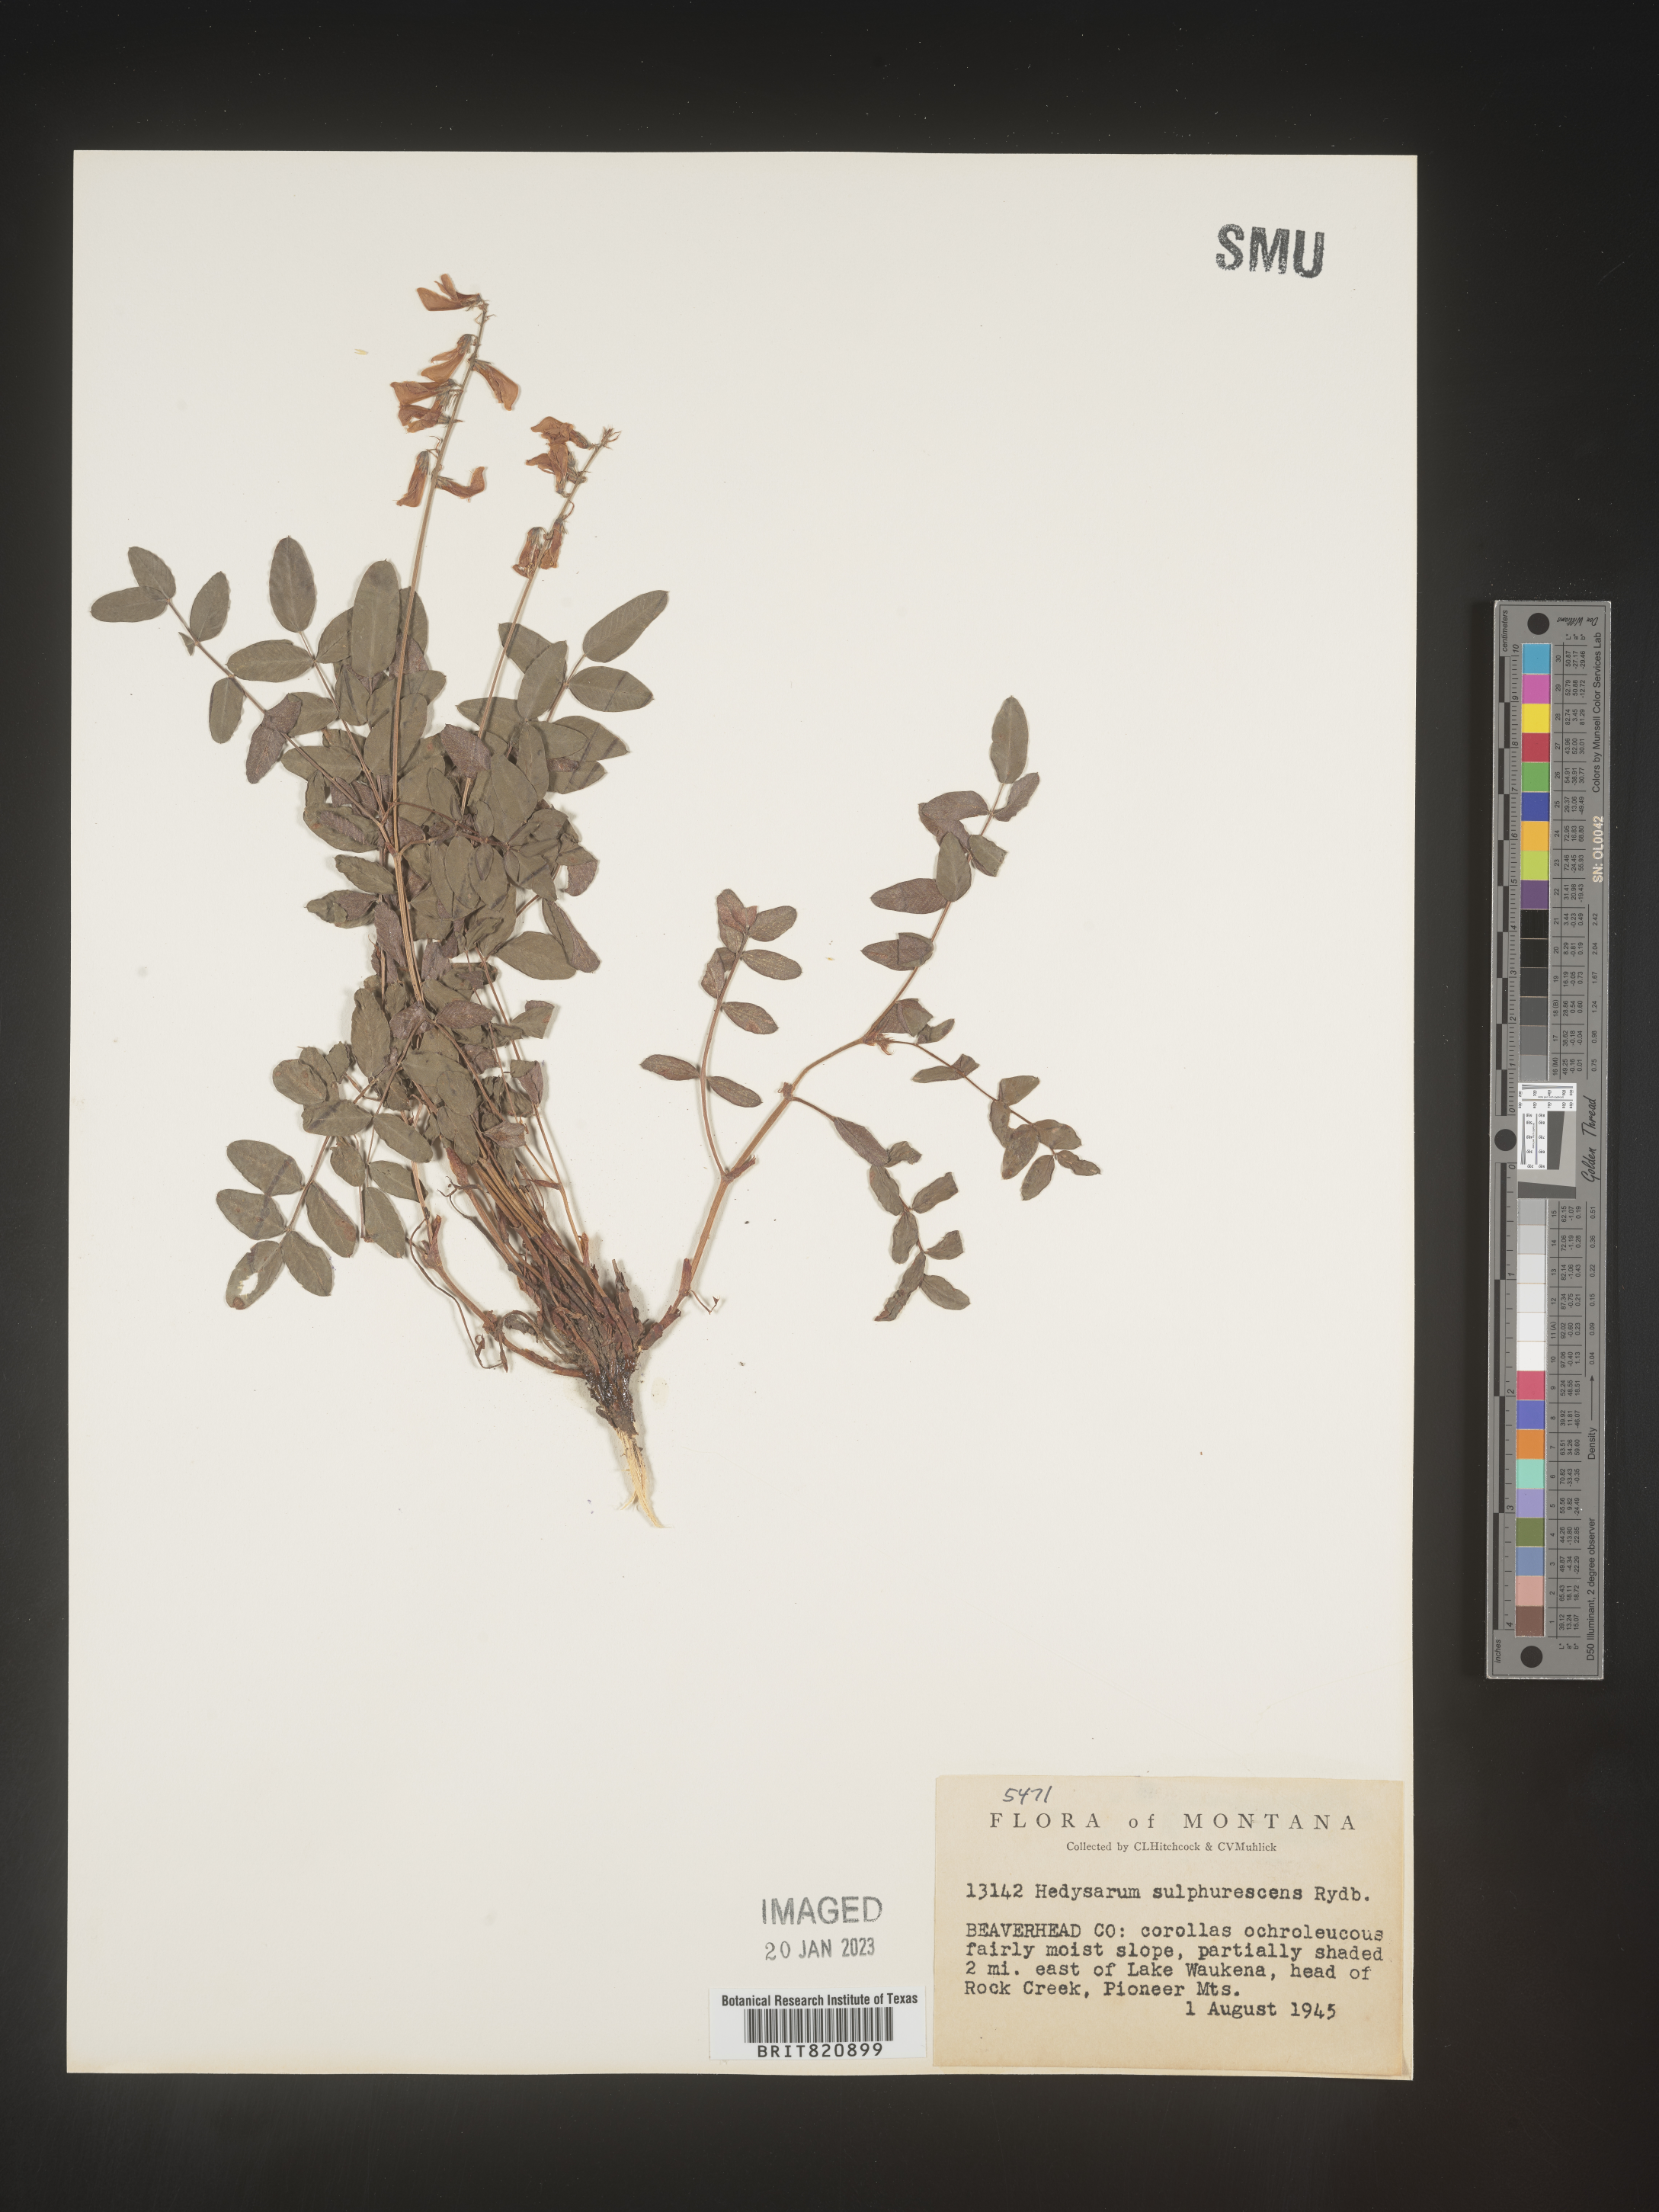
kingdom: Plantae
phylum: Tracheophyta
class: Magnoliopsida
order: Fabales
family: Fabaceae
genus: Hedysarum
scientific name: Hedysarum sulphurescens
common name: Sulphur hedysarum
